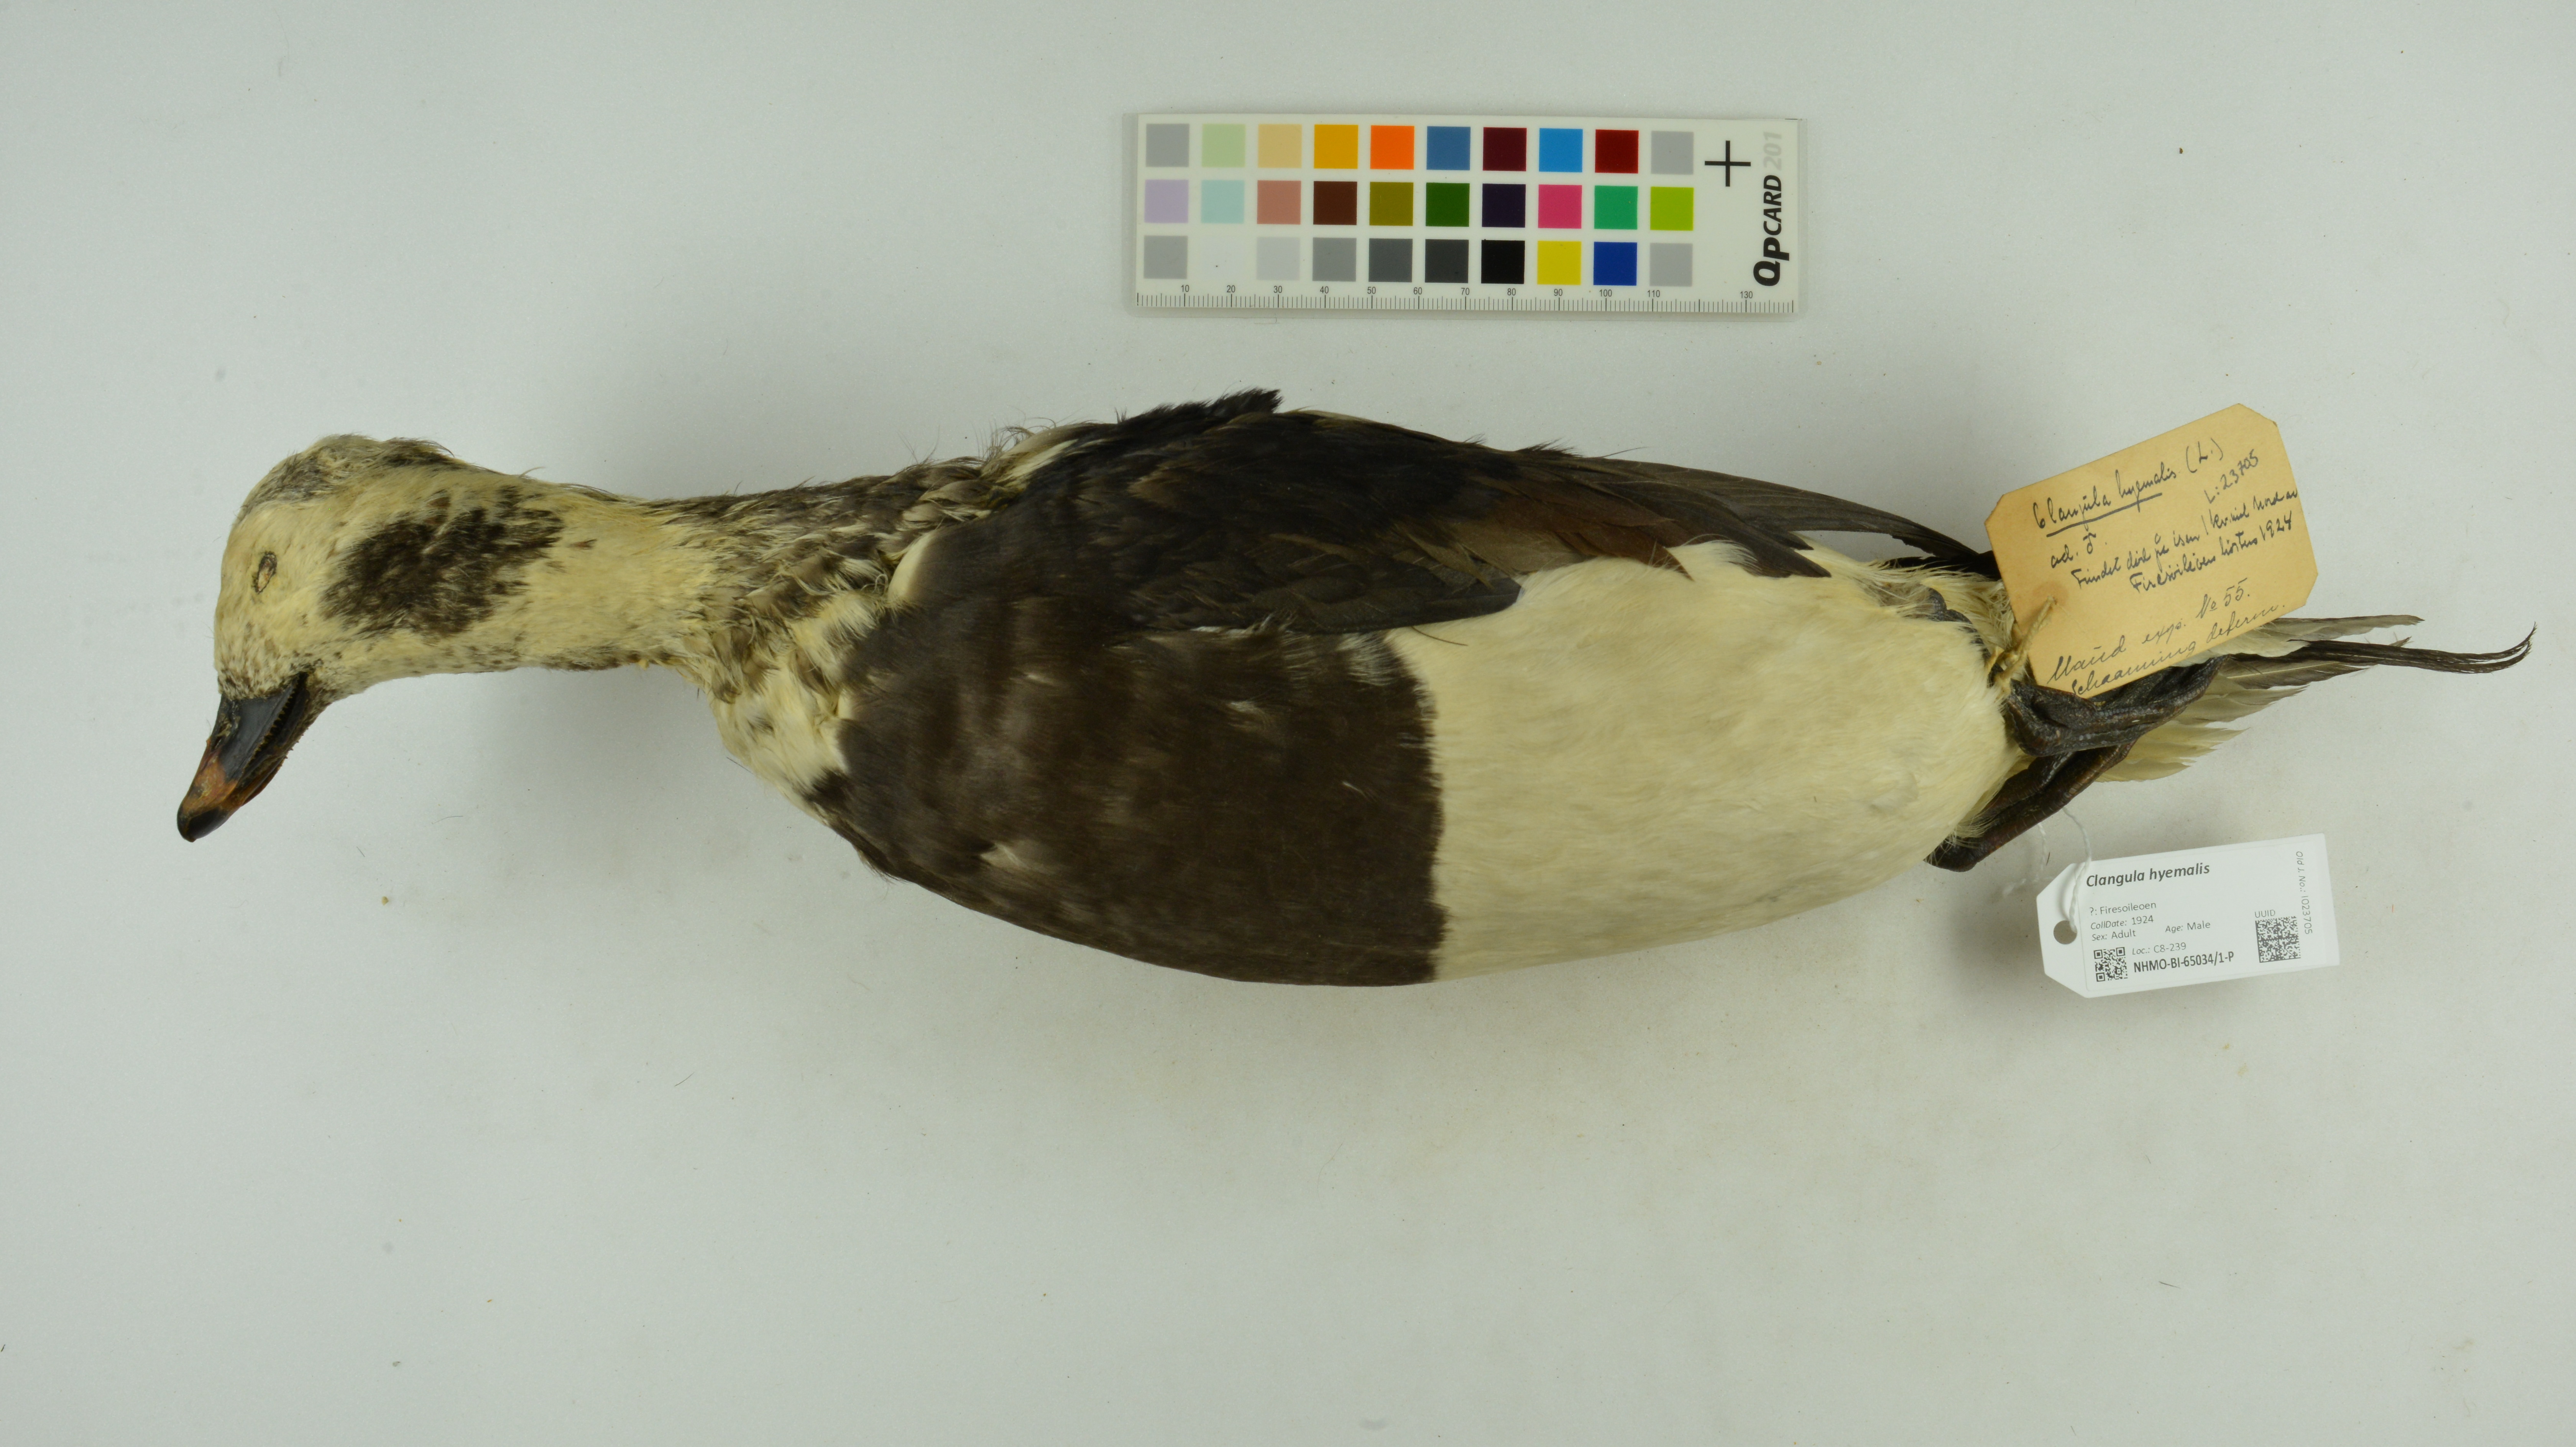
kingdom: Animalia
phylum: Chordata
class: Aves
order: Anseriformes
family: Anatidae
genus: Clangula
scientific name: Clangula hyemalis
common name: Long-tailed duck
